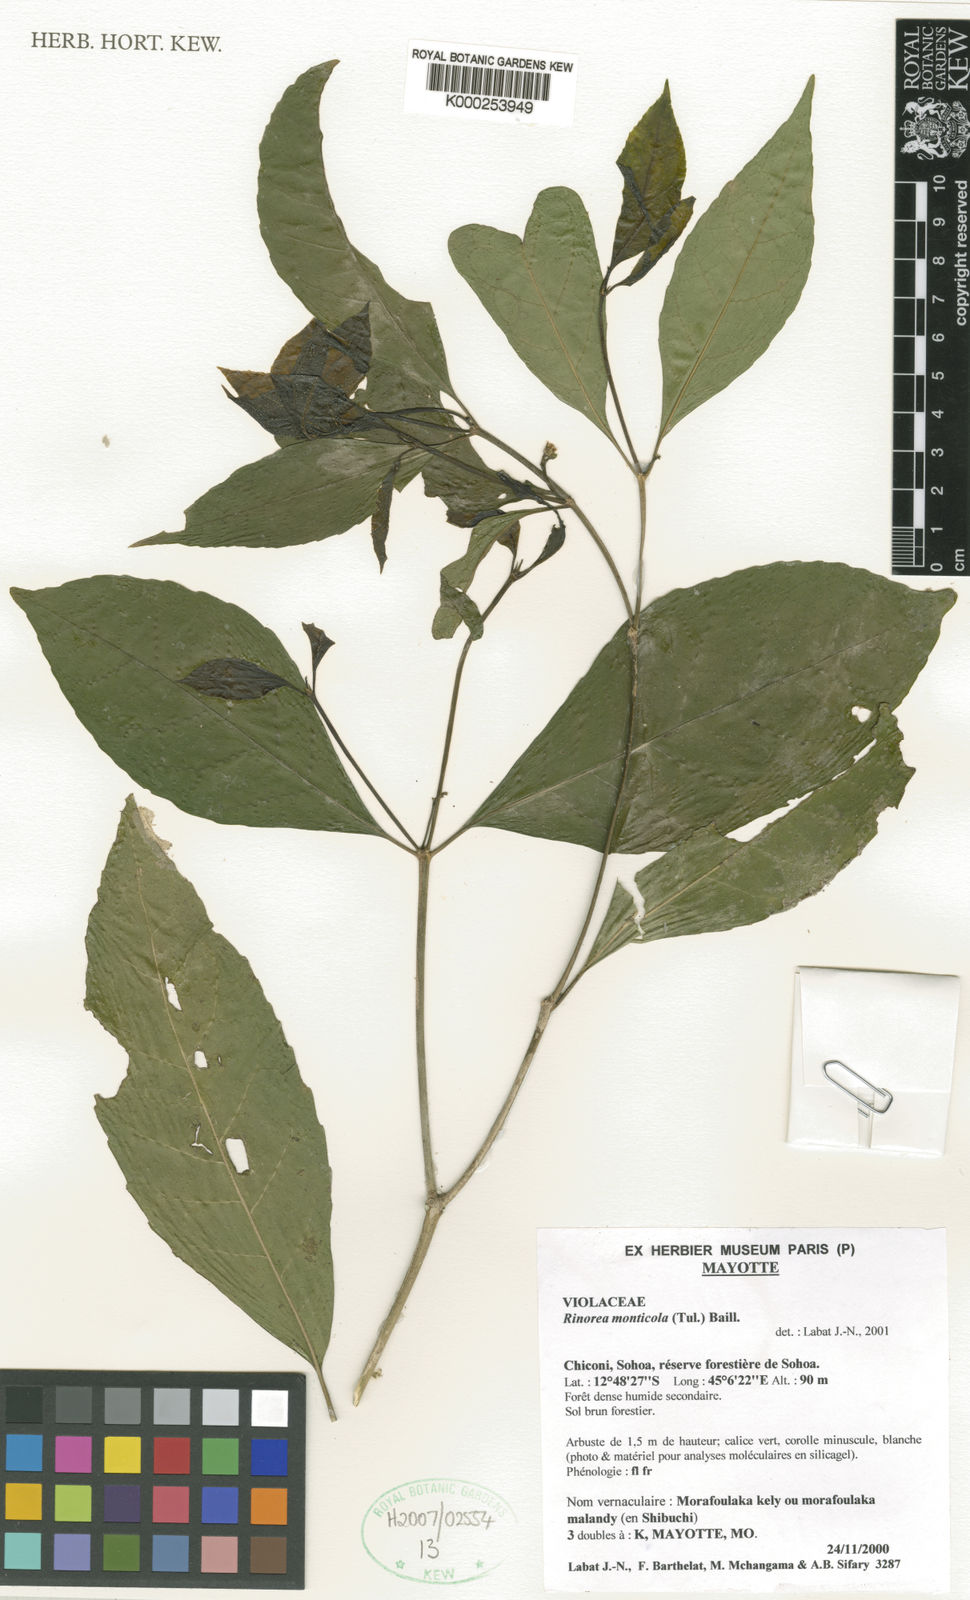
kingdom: Plantae
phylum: Tracheophyta
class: Magnoliopsida
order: Malpighiales
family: Violaceae
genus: Rinorea
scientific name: Rinorea monticola
